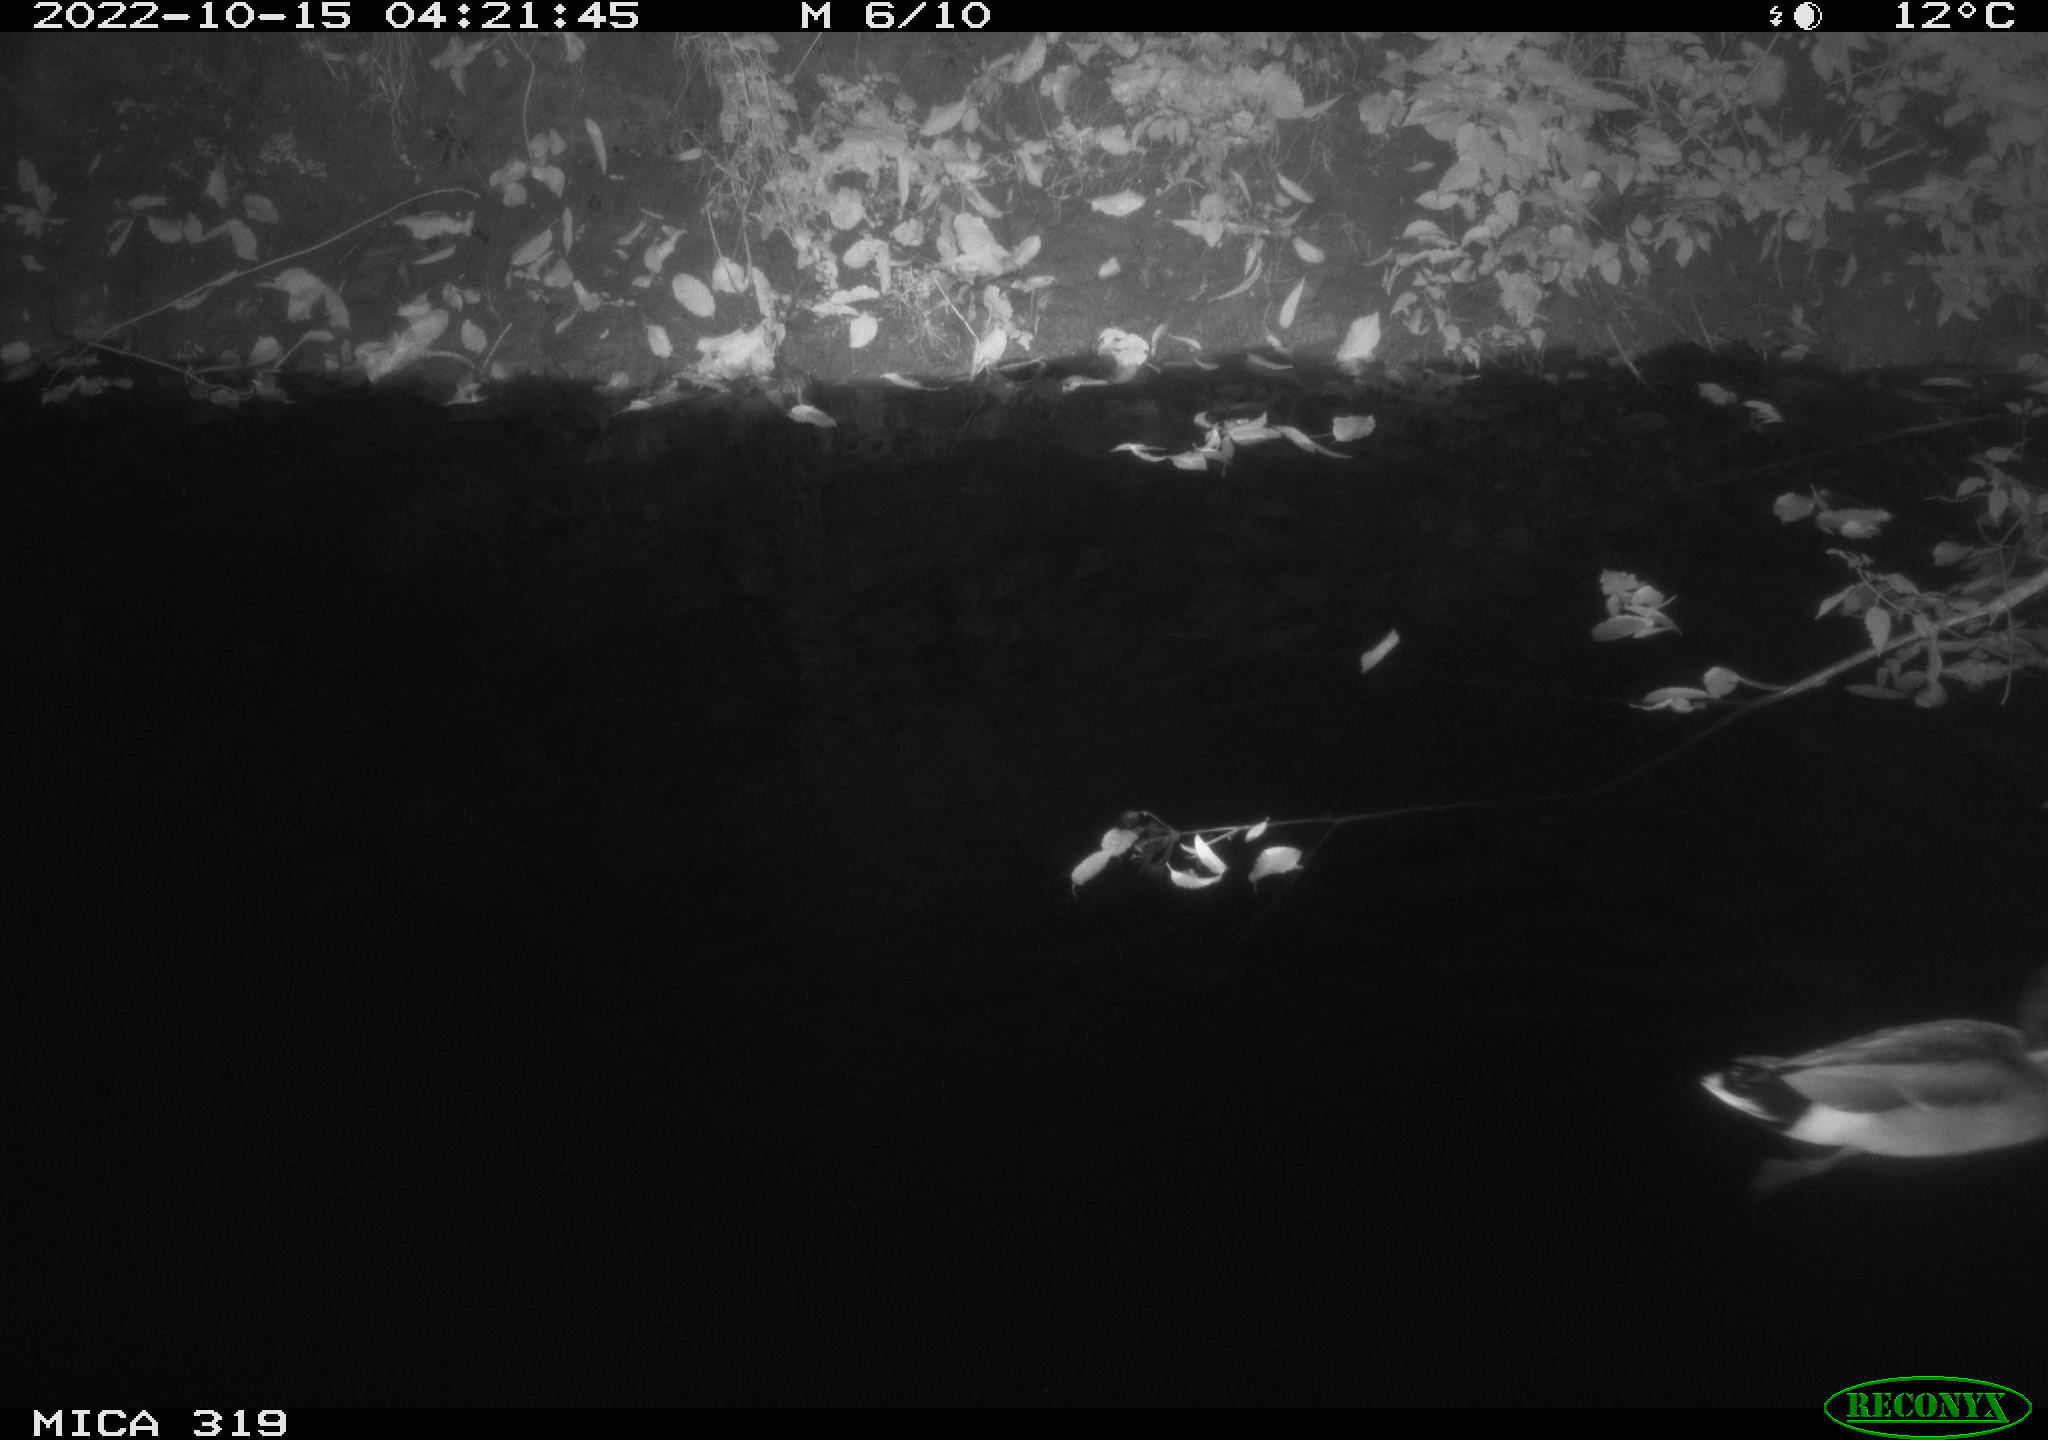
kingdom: Animalia
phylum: Chordata
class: Aves
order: Anseriformes
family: Anatidae
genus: Anas
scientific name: Anas
